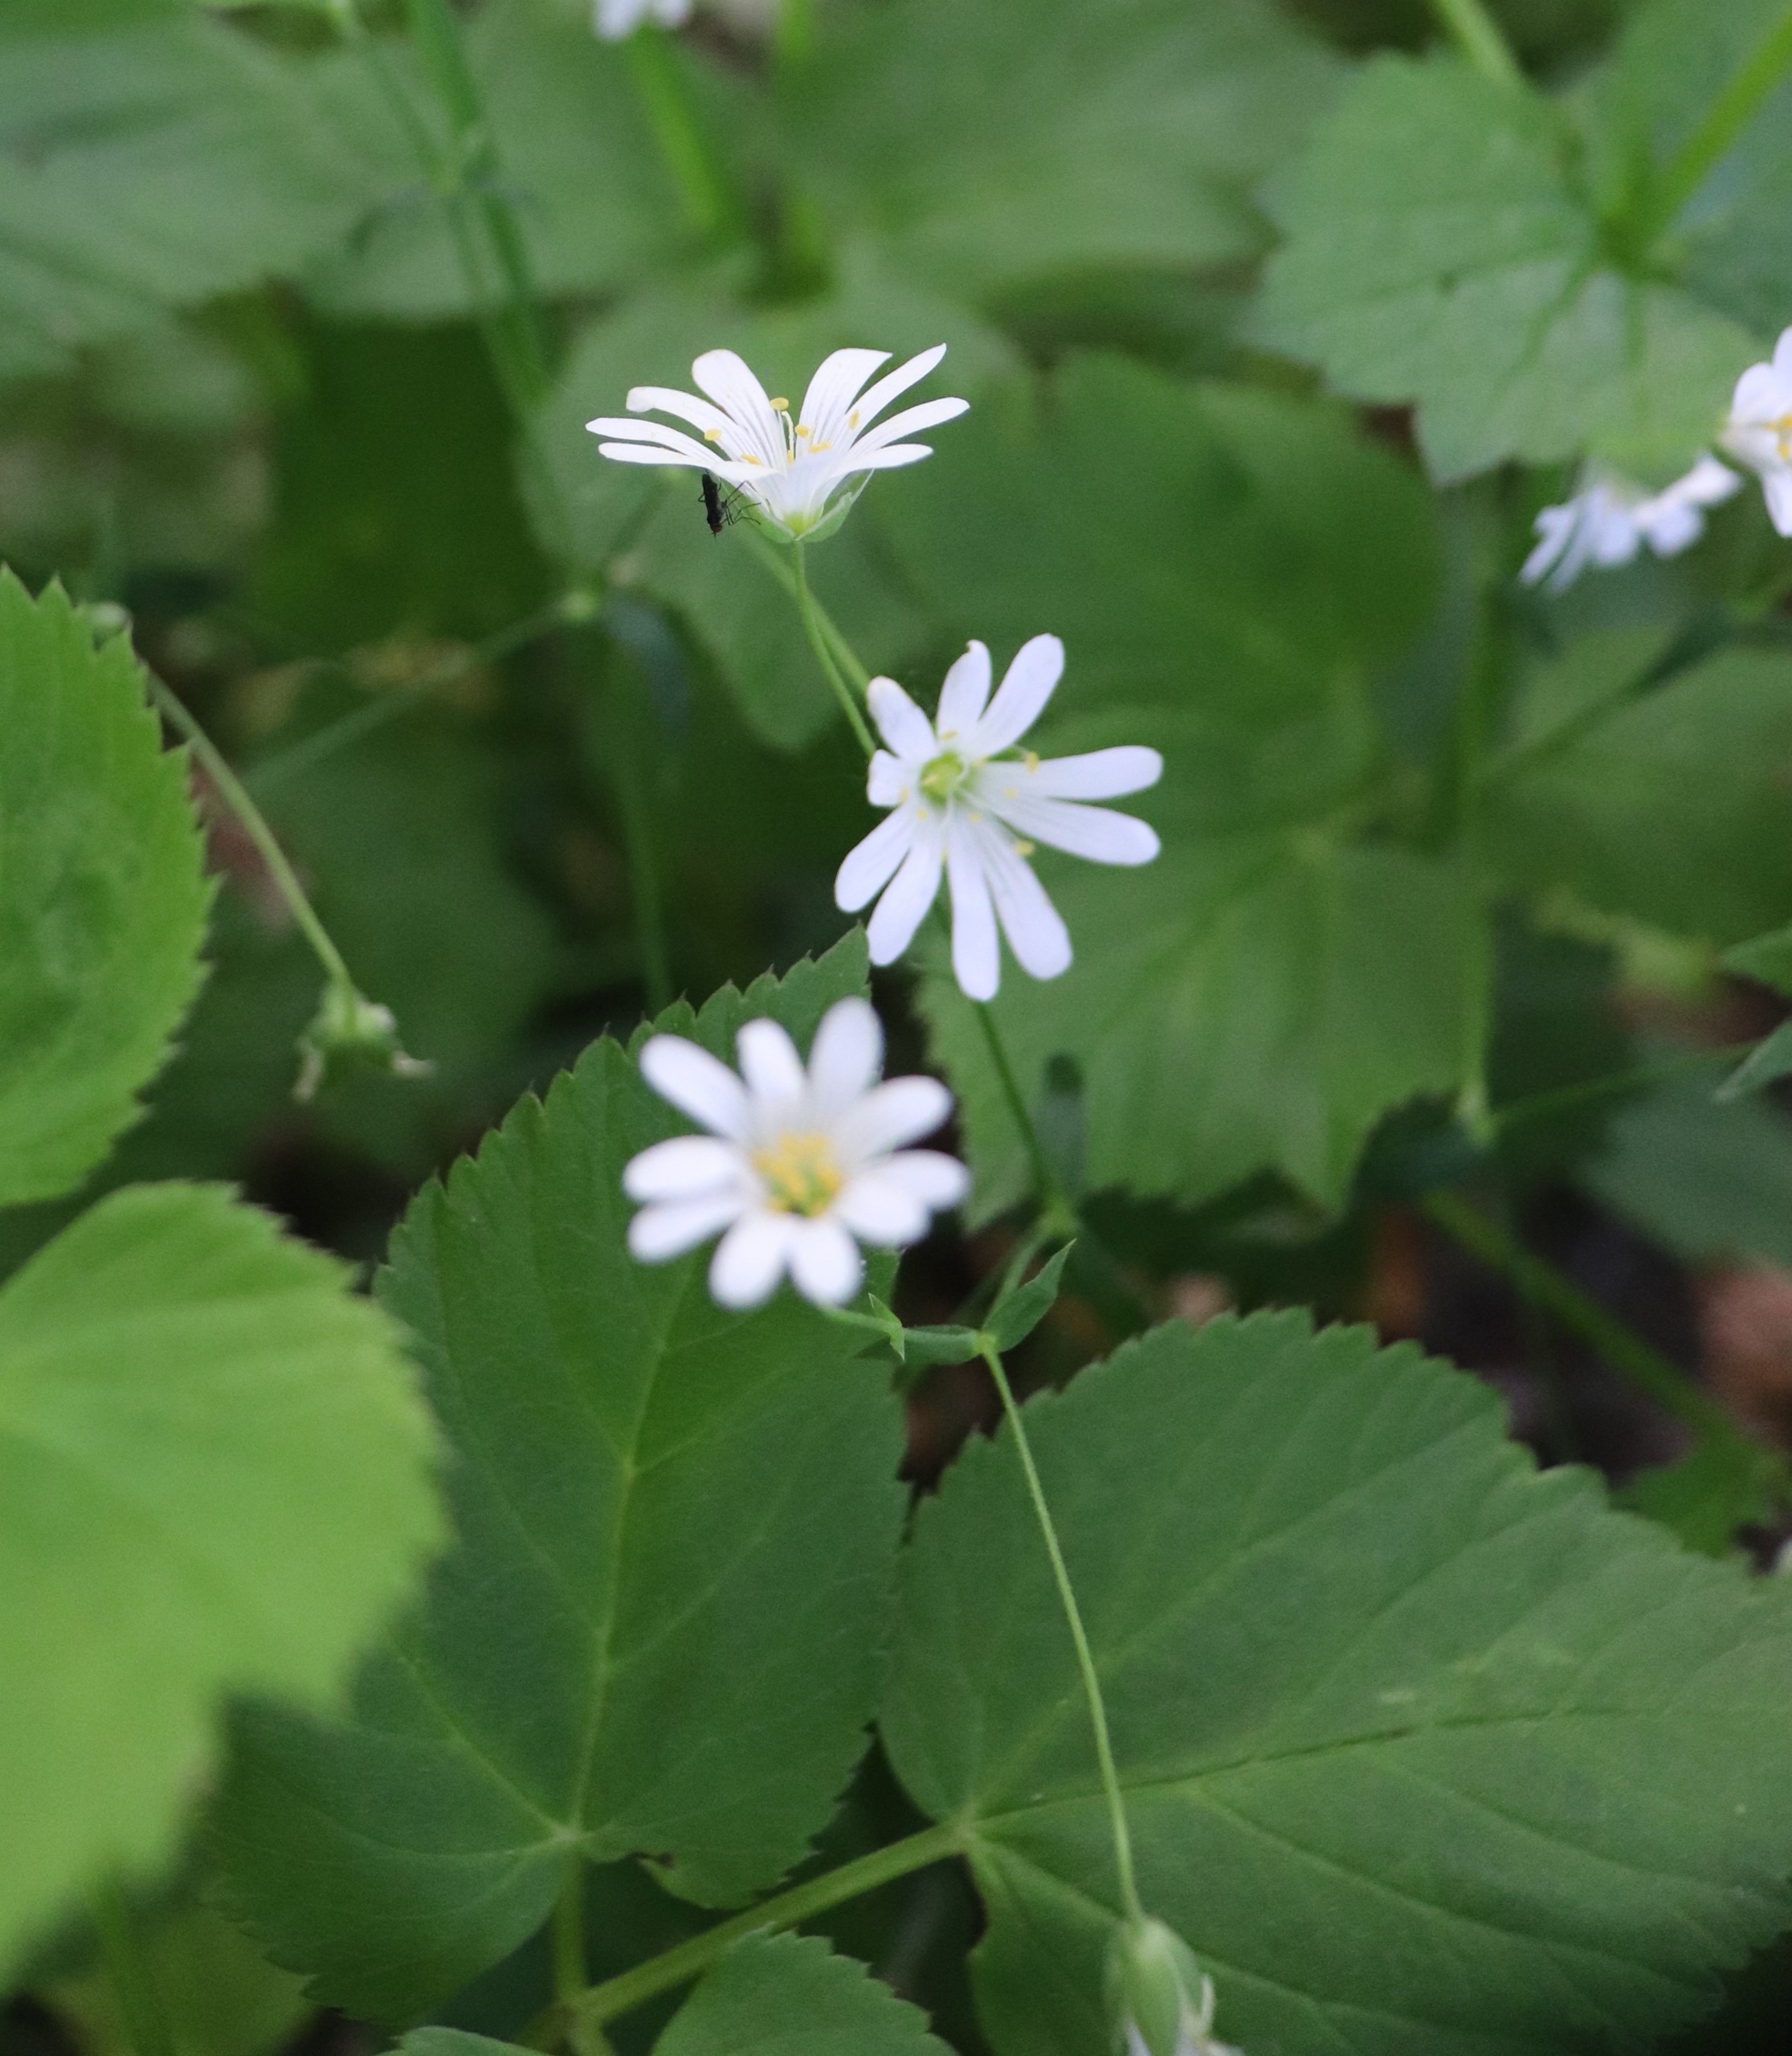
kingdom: Plantae
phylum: Tracheophyta
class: Magnoliopsida
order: Caryophyllales
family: Caryophyllaceae
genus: Rabelera
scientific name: Rabelera holostea
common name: Stor fladstjerne
